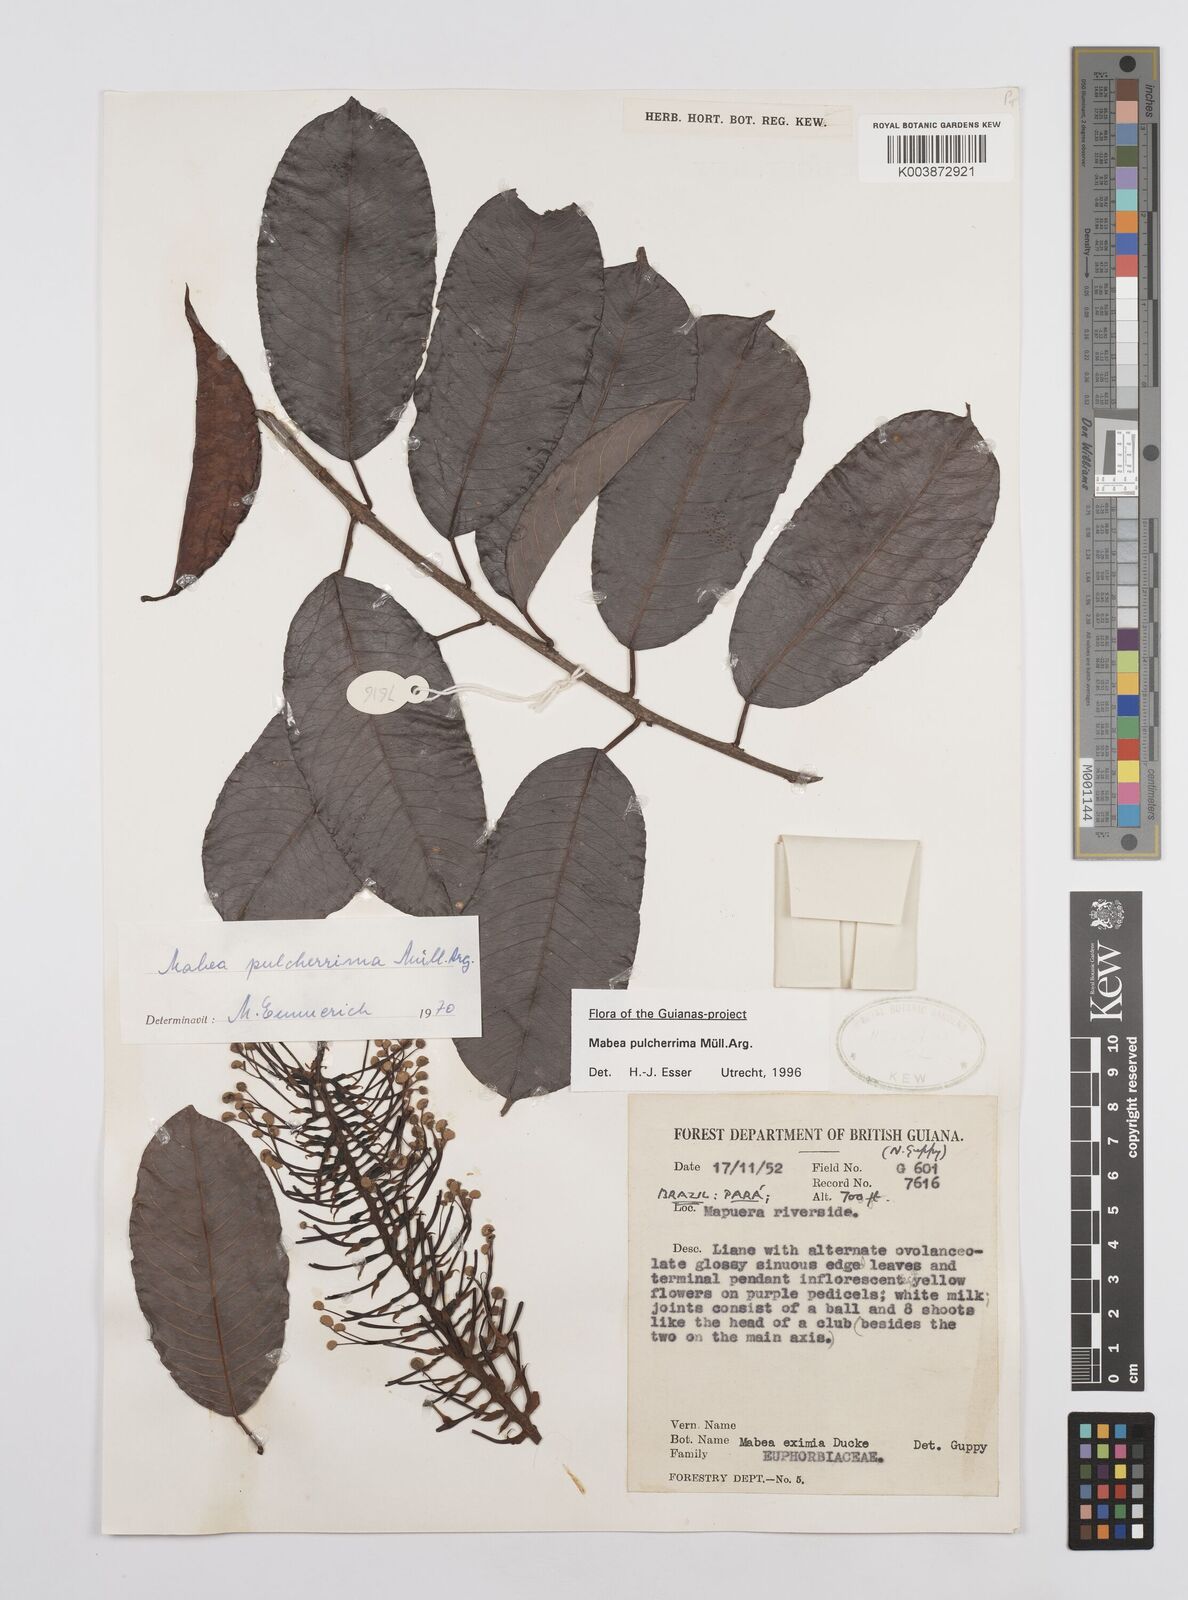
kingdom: Plantae
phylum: Tracheophyta
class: Magnoliopsida
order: Malpighiales
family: Euphorbiaceae
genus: Mabea
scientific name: Mabea pulcherrima
